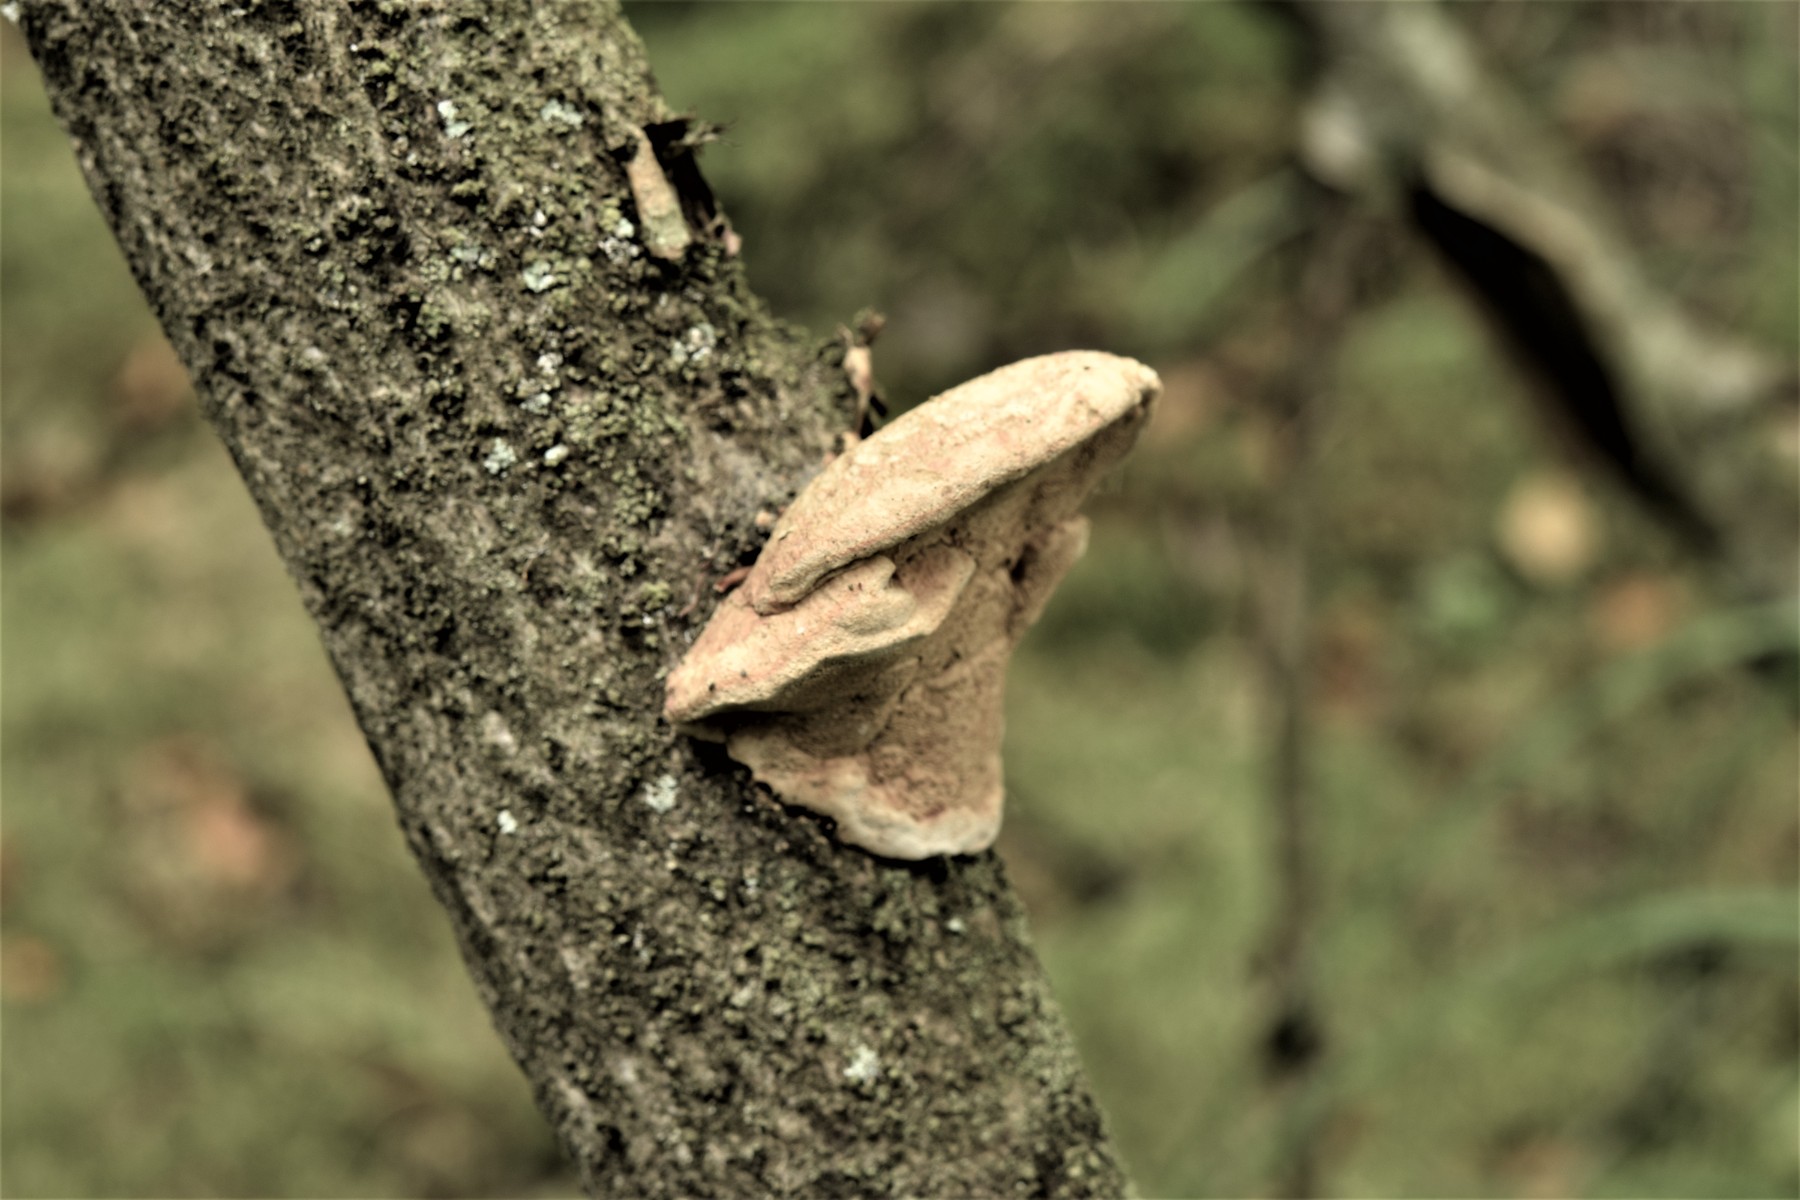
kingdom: Fungi
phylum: Basidiomycota
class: Agaricomycetes
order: Polyporales
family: Phanerochaetaceae
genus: Hapalopilus
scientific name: Hapalopilus rutilans
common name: rødlig okkerporesvamp
